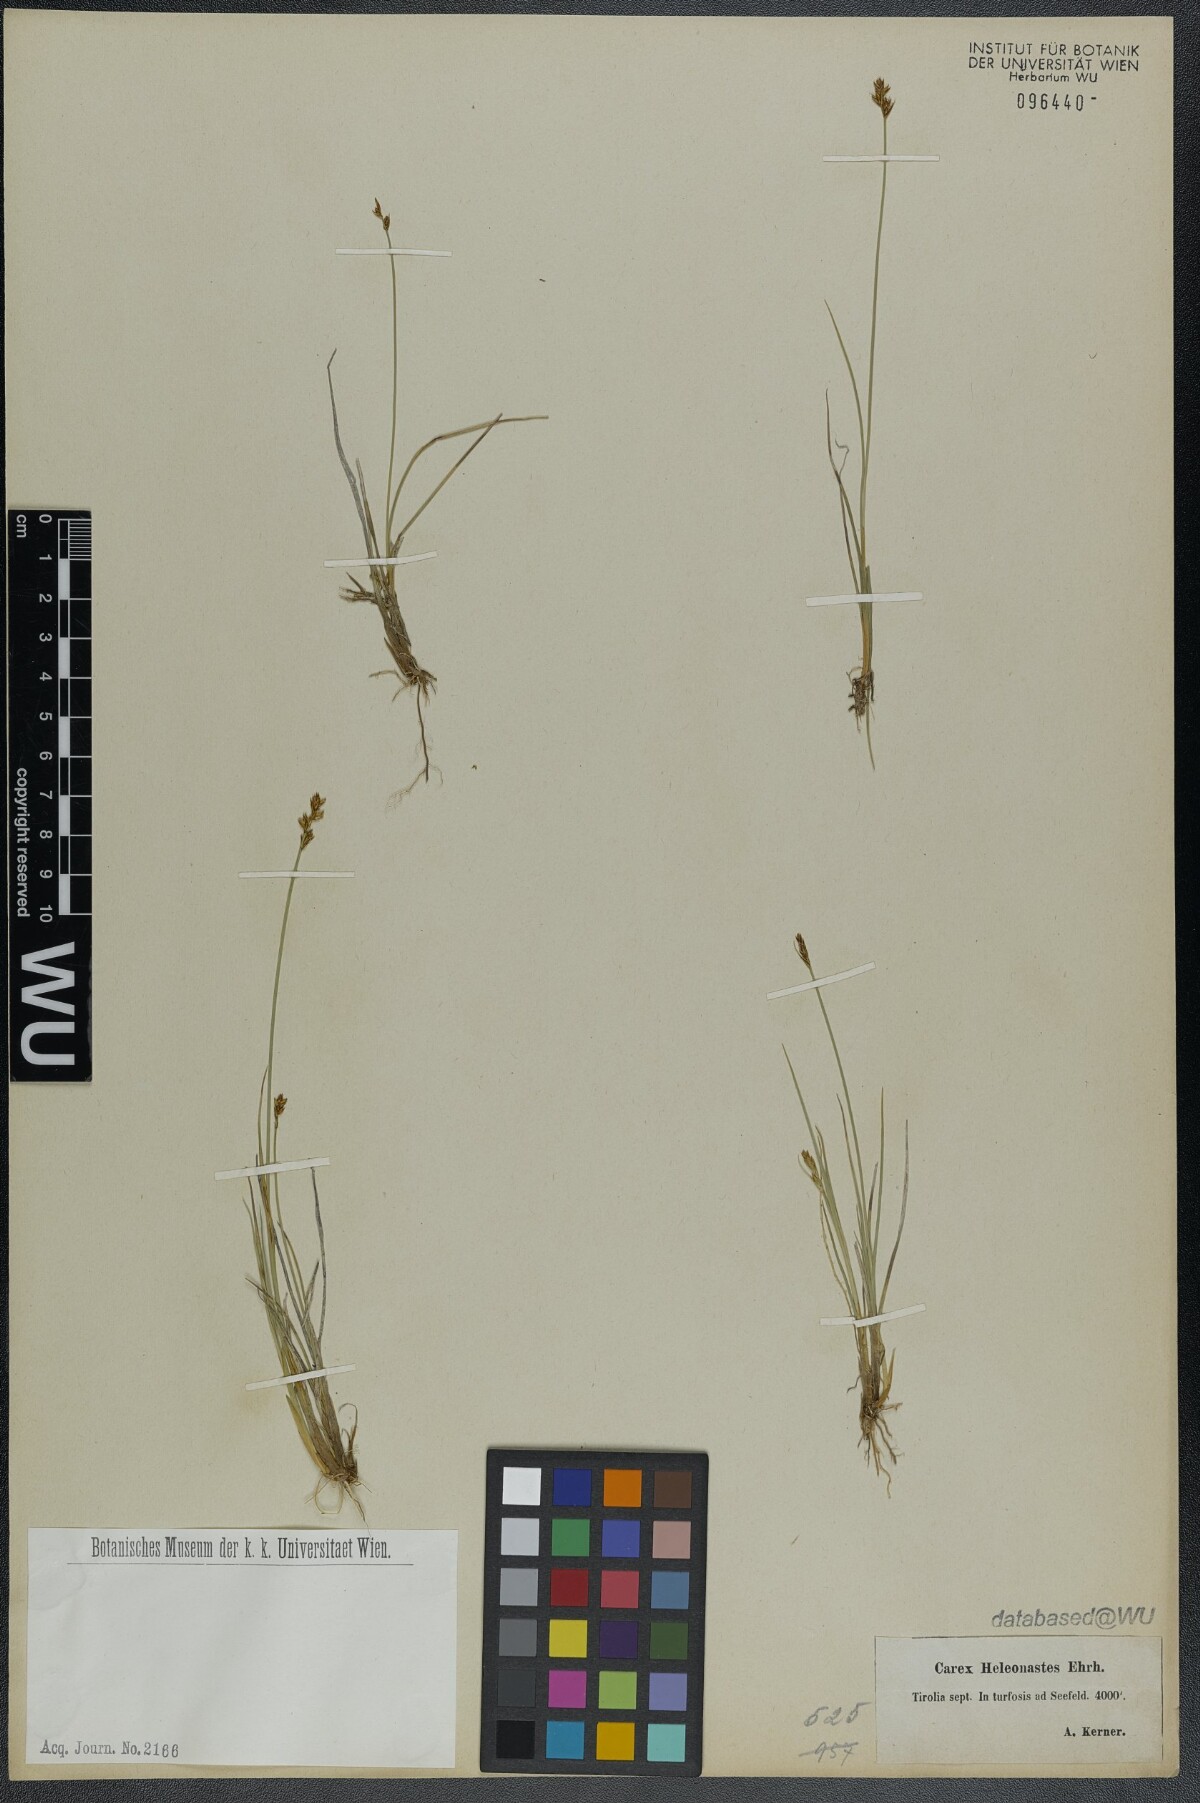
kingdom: Plantae
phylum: Tracheophyta
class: Liliopsida
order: Poales
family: Cyperaceae
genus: Carex
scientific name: Carex heleonastes
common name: Hudson bay sedge
